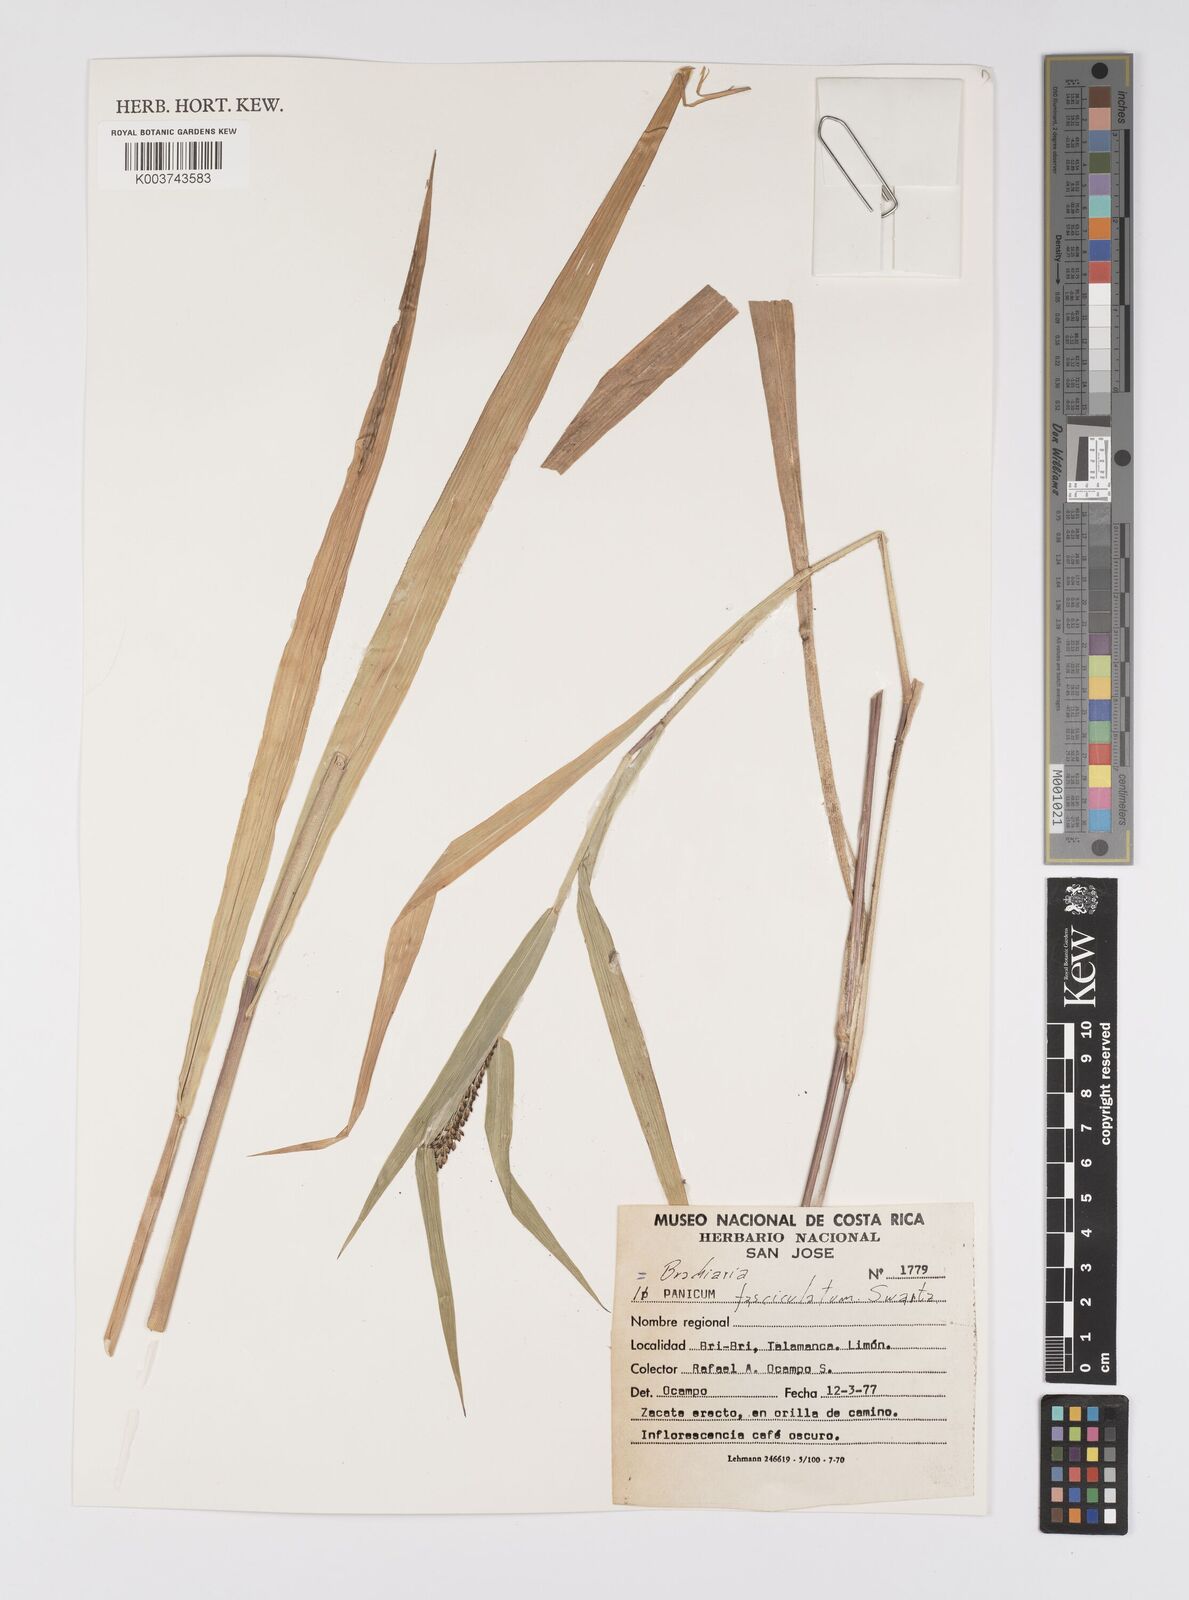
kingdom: Plantae
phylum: Tracheophyta
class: Liliopsida
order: Poales
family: Poaceae
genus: Urochloa
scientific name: Urochloa fusca
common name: Browntop signal grass
